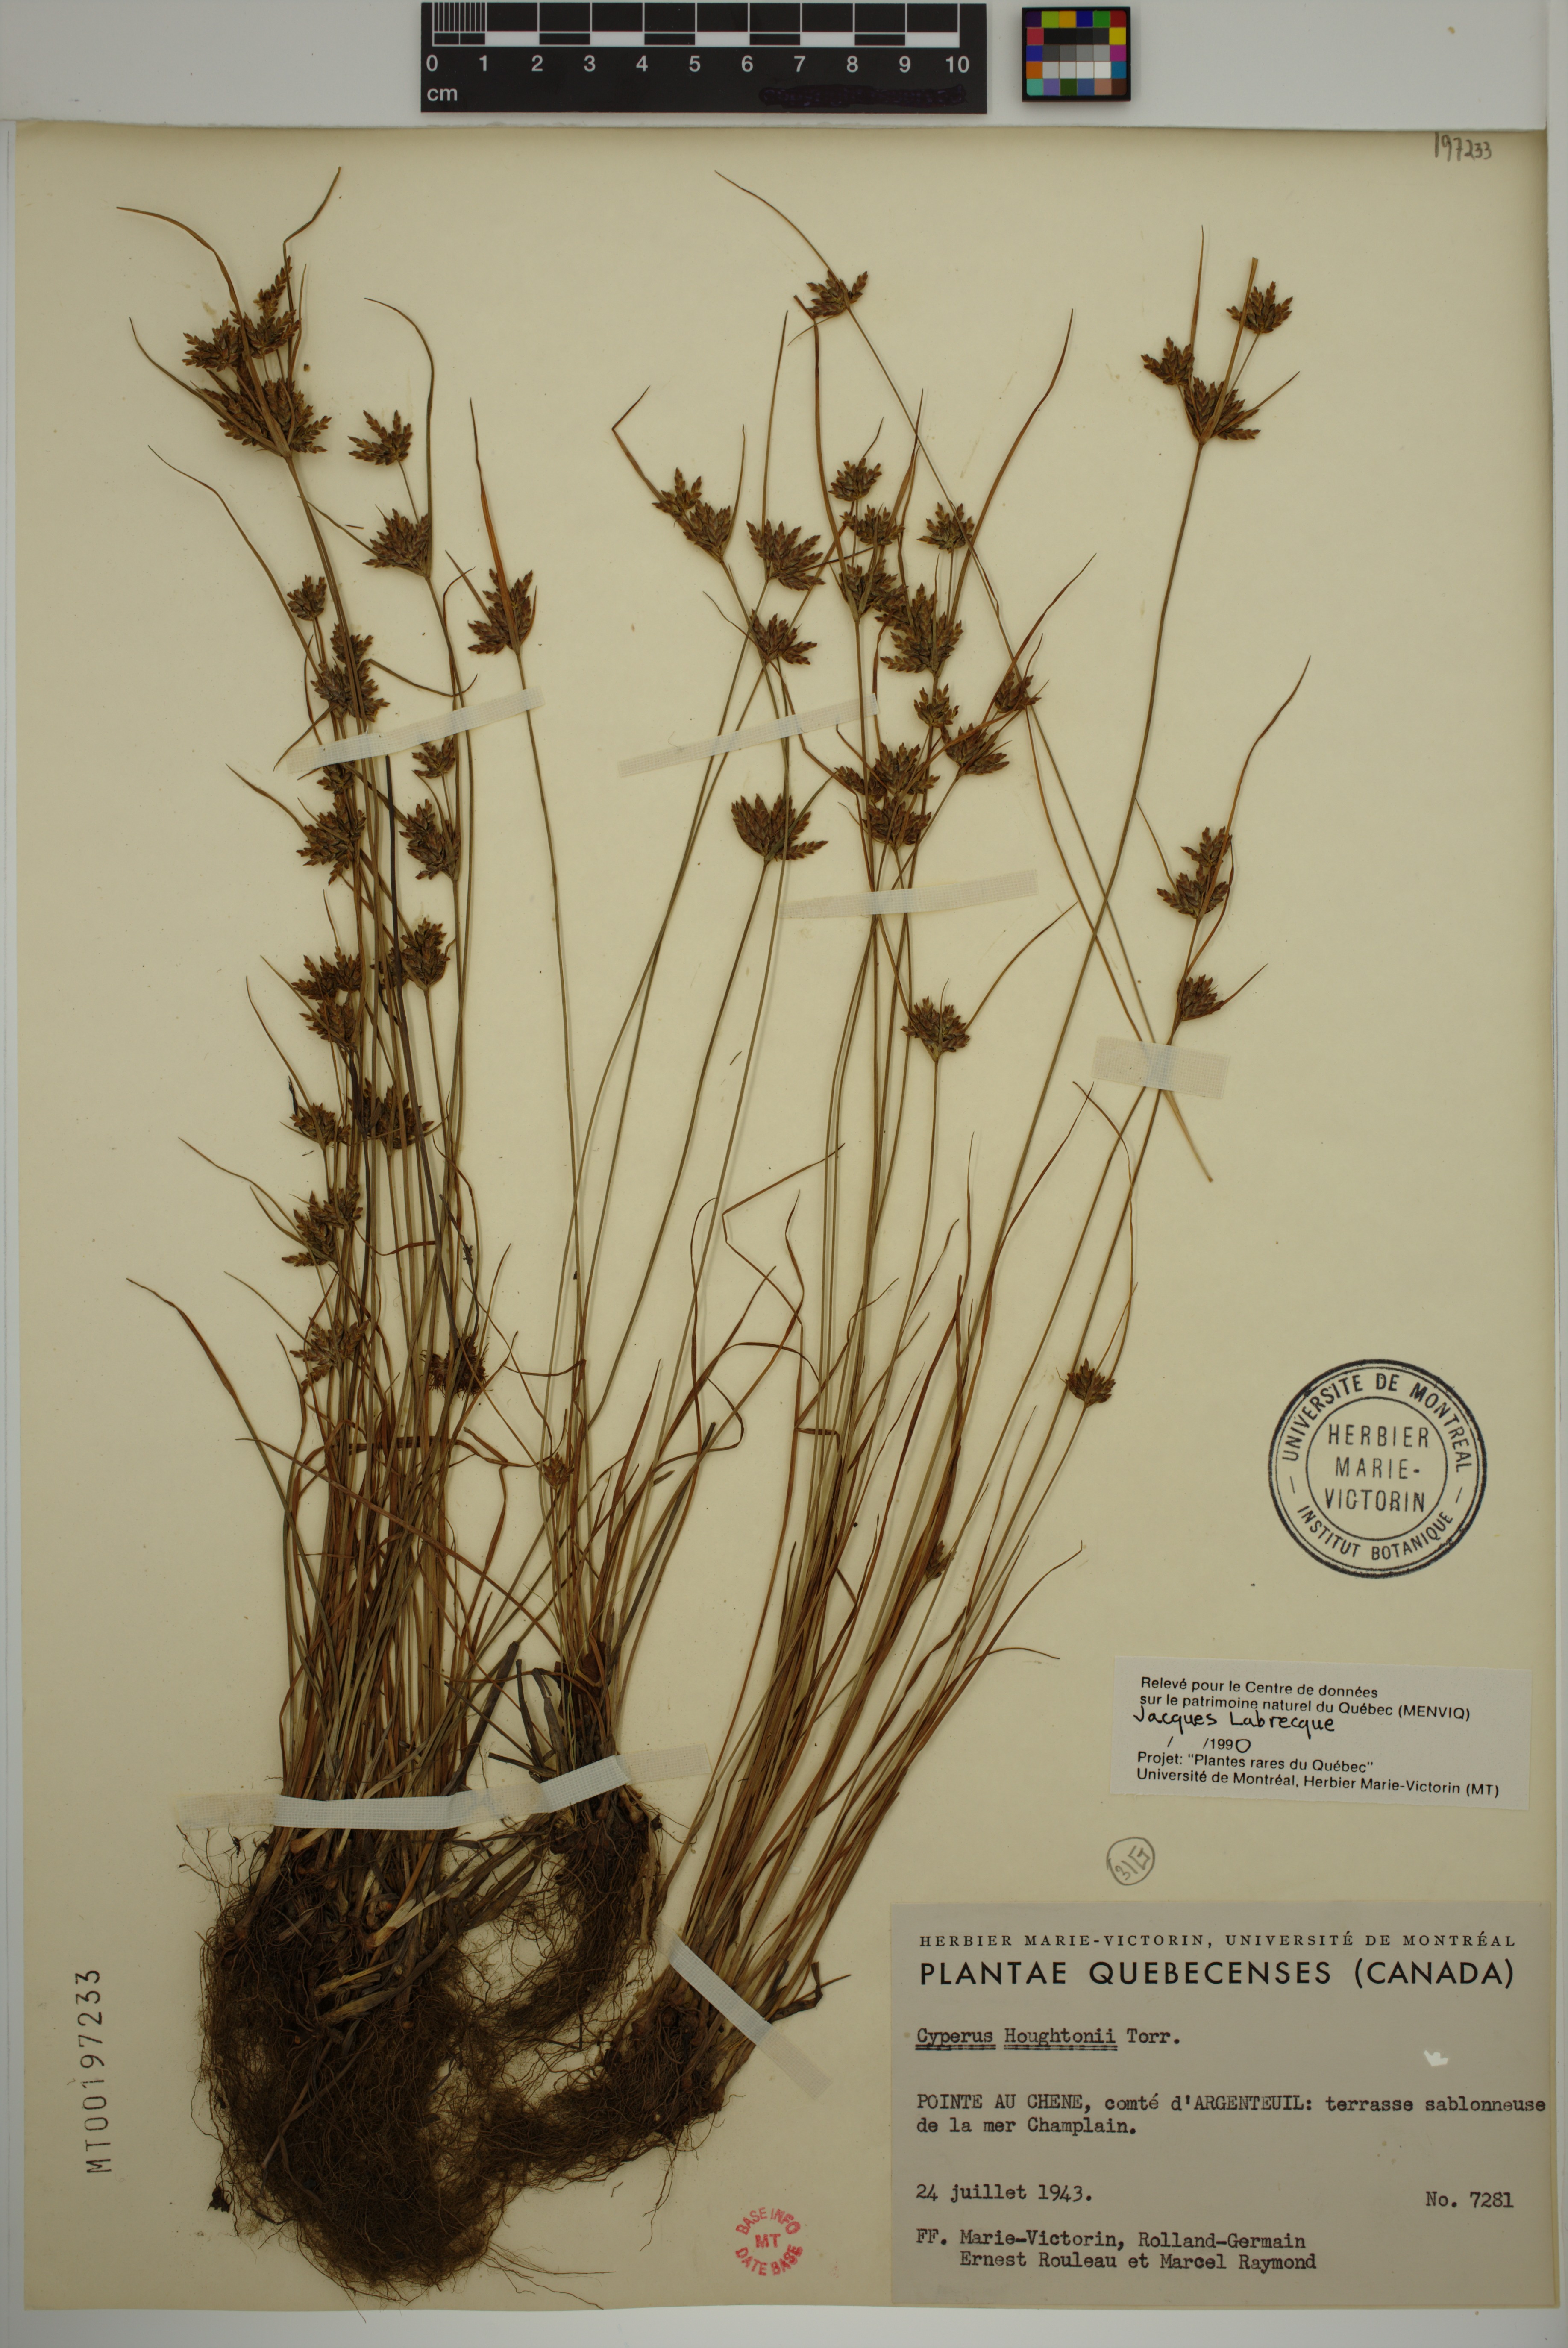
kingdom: Plantae
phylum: Tracheophyta
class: Liliopsida
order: Poales
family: Cyperaceae
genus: Cyperus
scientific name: Cyperus houghtonii
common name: Houghton's cyperus
